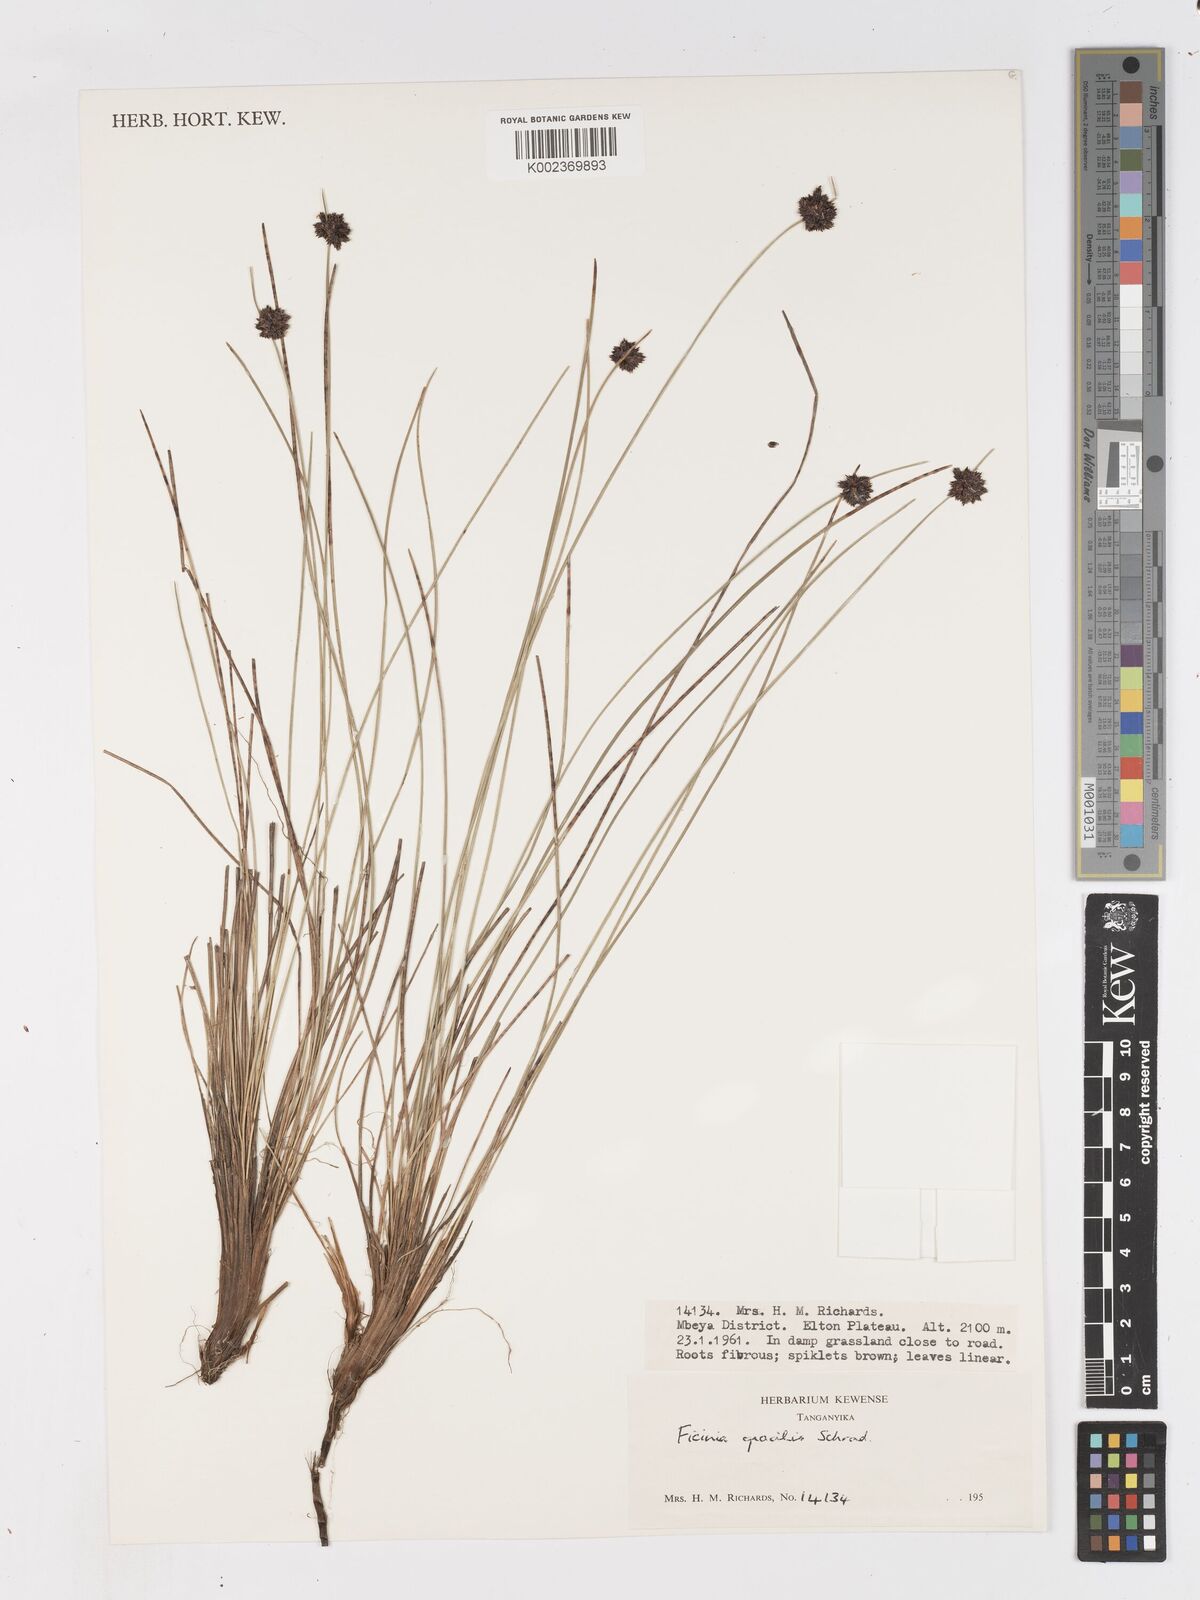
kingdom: Plantae
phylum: Tracheophyta
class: Liliopsida
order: Poales
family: Cyperaceae
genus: Ficinia
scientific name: Ficinia gracilis
